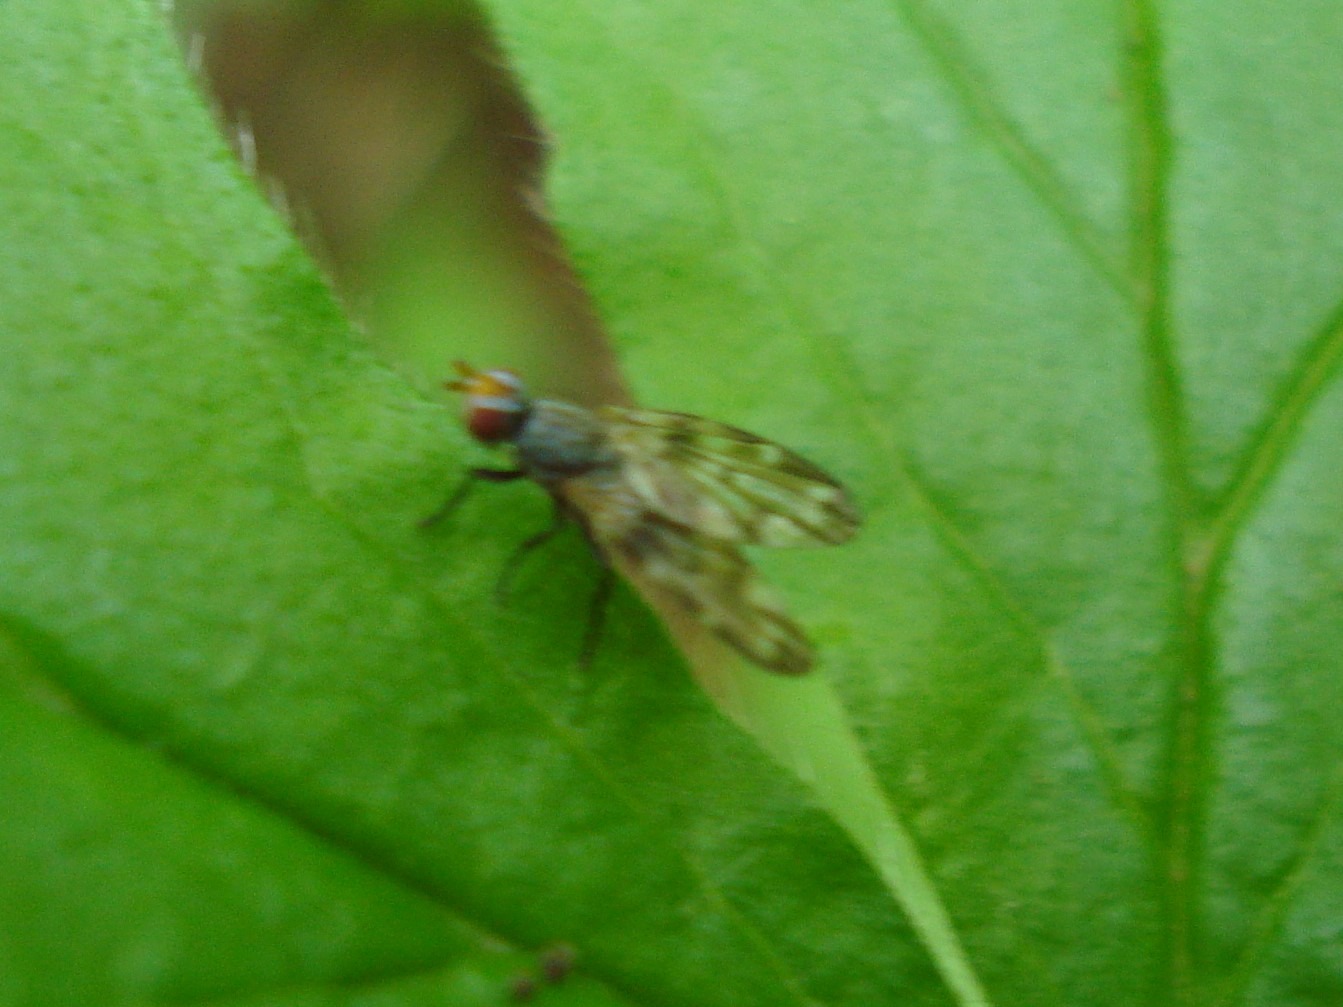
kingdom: Animalia
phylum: Arthropoda
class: Insecta
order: Diptera
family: Ulidiidae
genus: Otites
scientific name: Otites guttata
